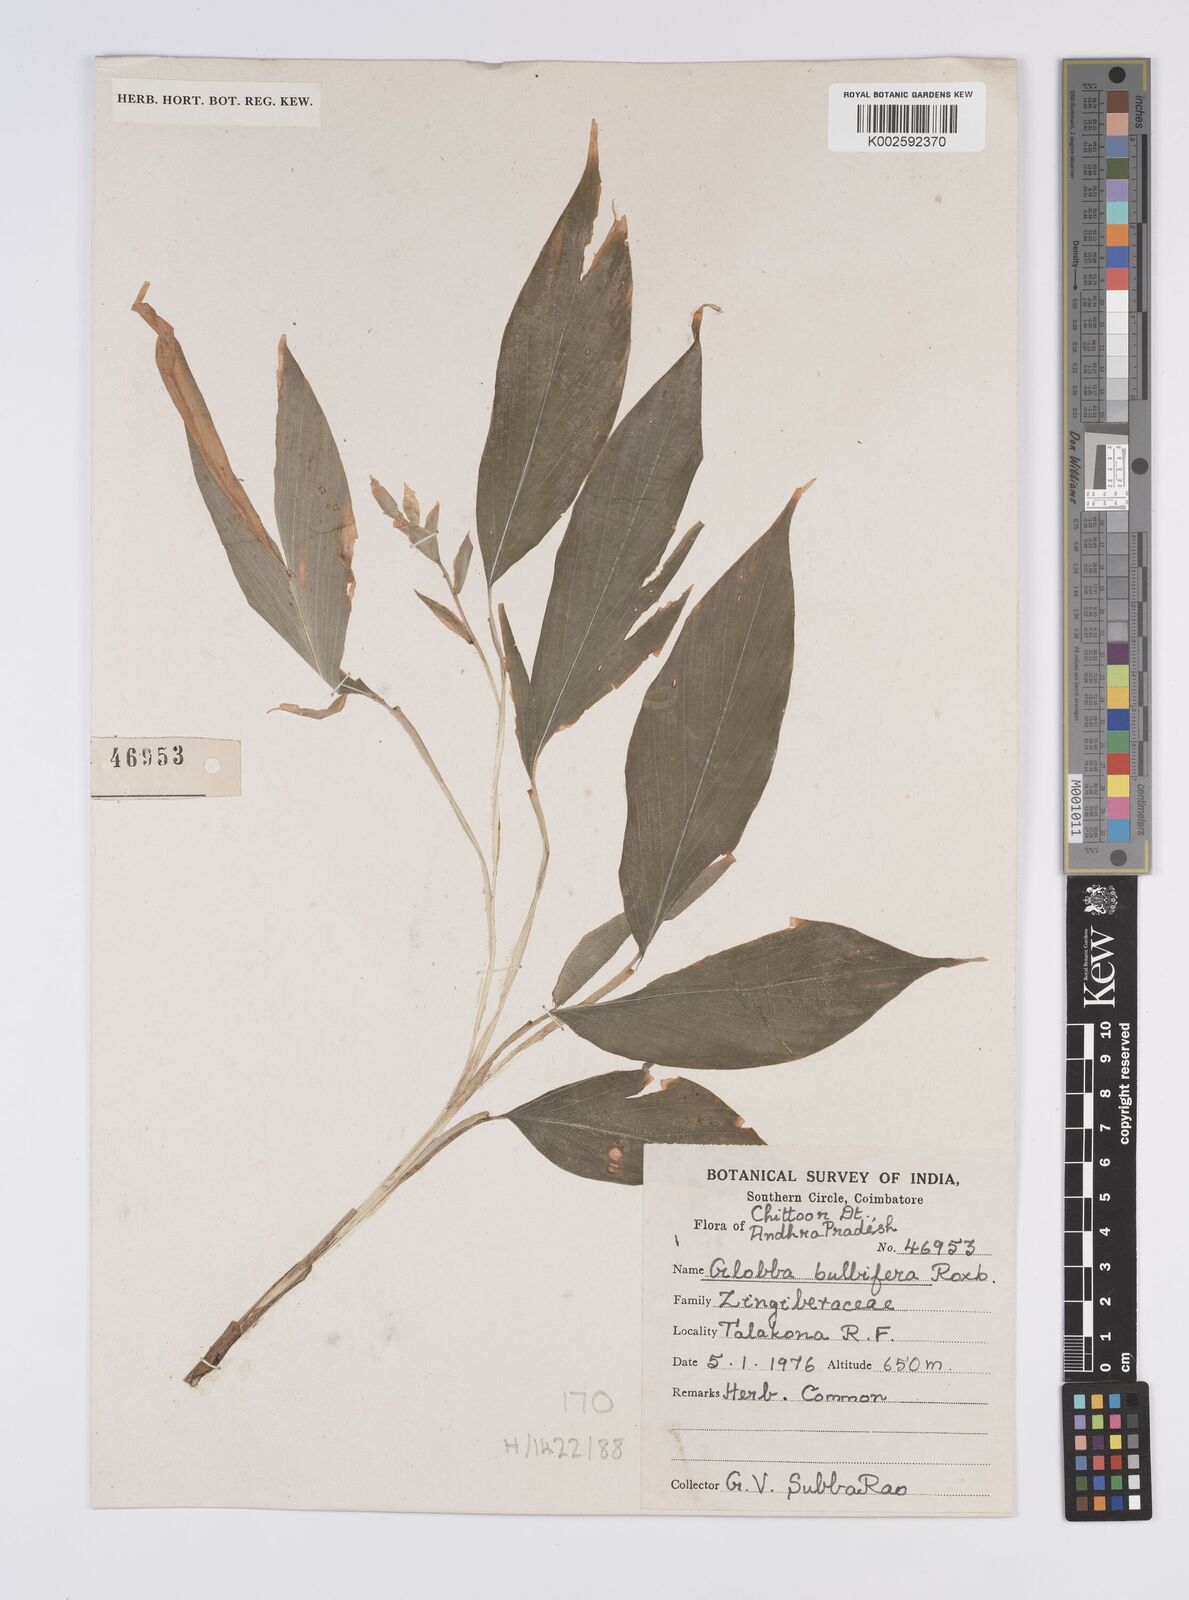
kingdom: Plantae
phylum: Tracheophyta
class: Liliopsida
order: Zingiberales
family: Zingiberaceae
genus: Globba
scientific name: Globba marantina
